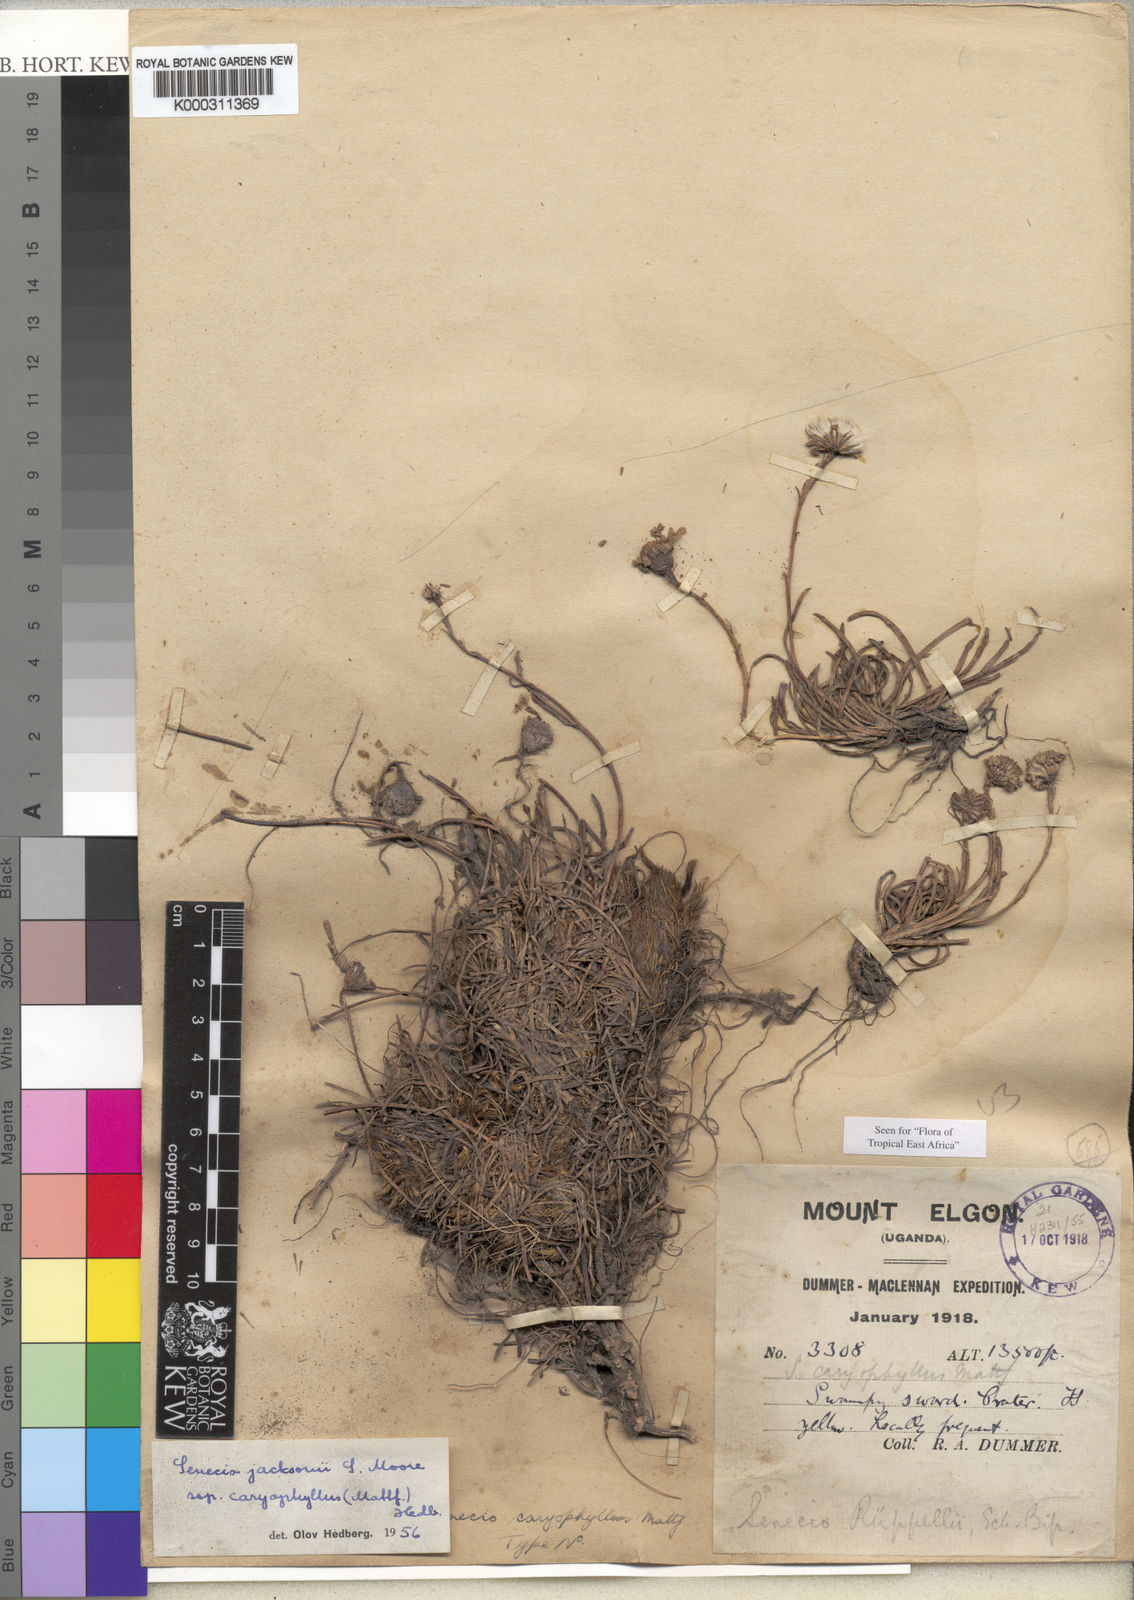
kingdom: Plantae
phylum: Tracheophyta
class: Magnoliopsida
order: Asterales
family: Asteraceae
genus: Senecio
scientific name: Senecio jacksonii
